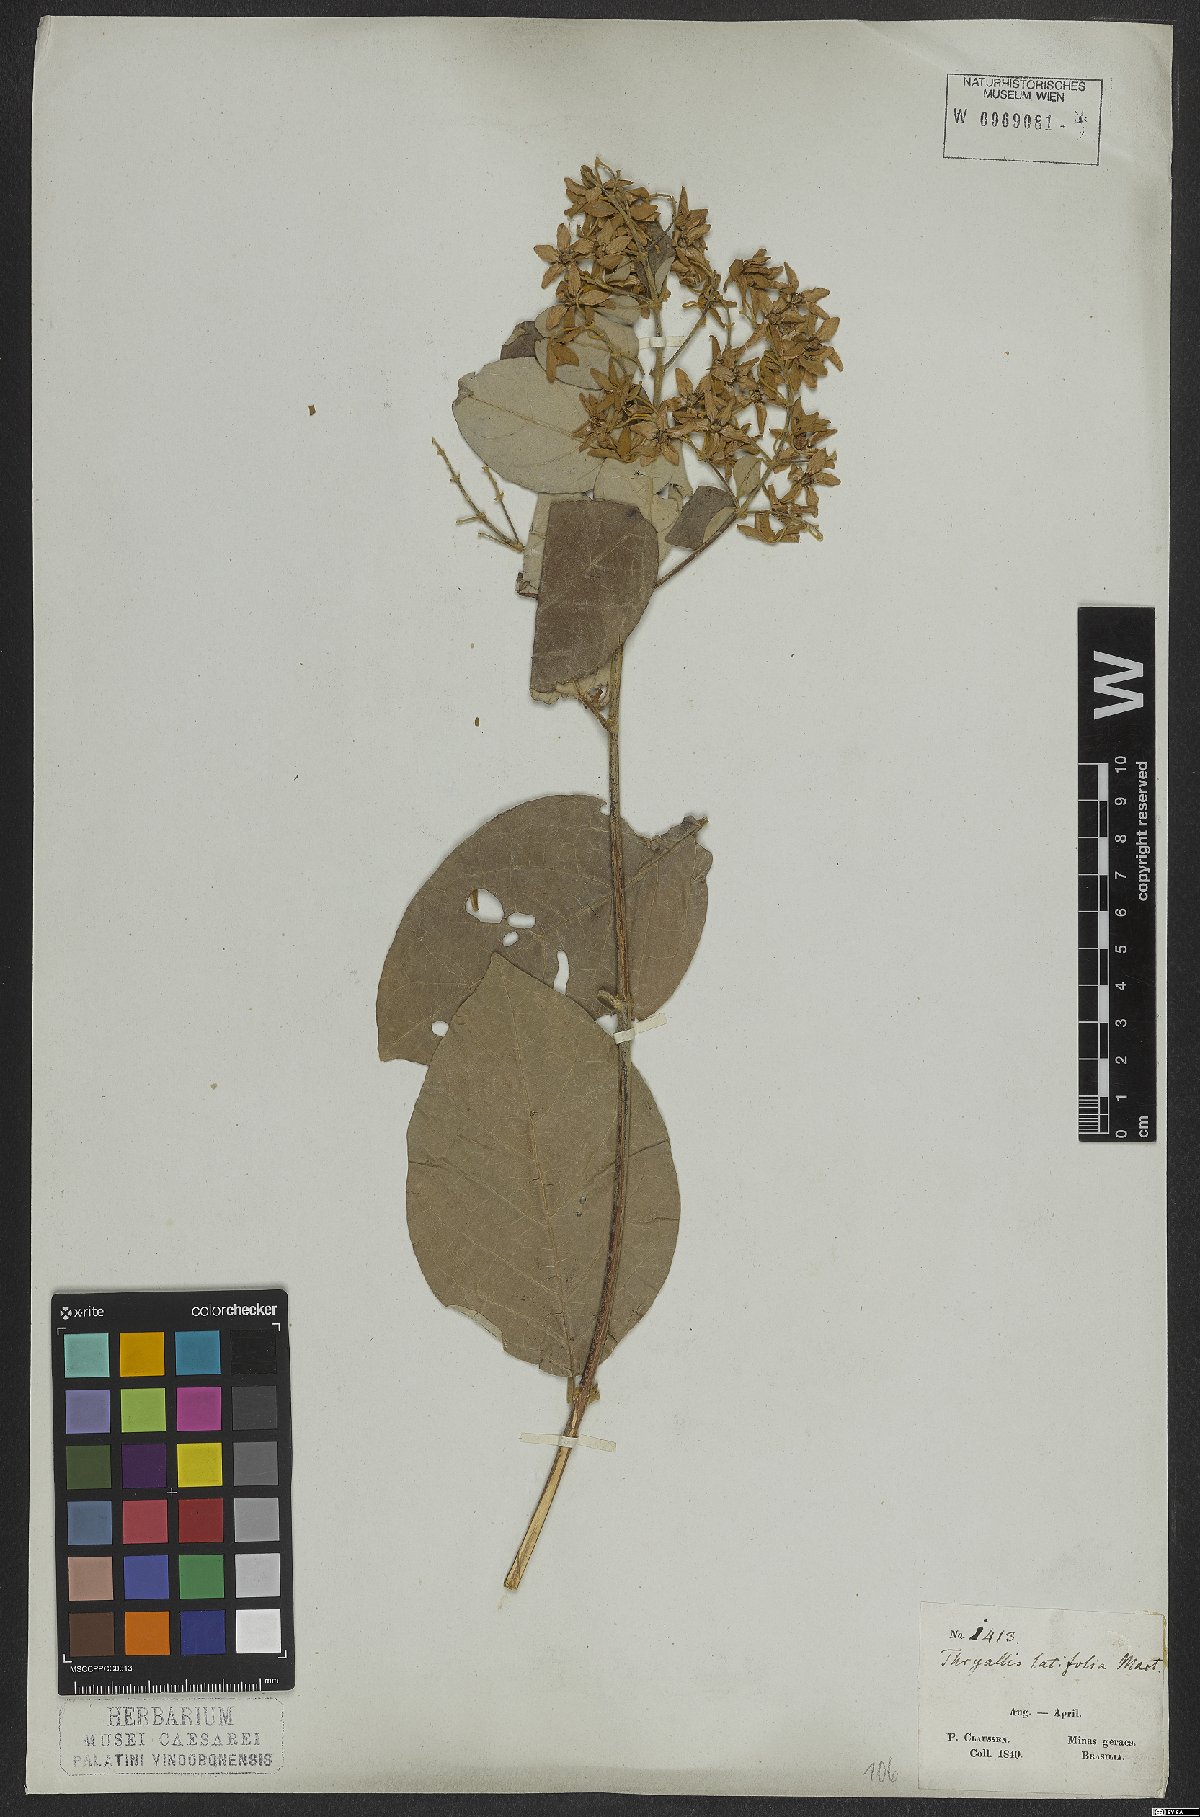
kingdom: Plantae
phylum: Tracheophyta
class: Magnoliopsida
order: Malpighiales
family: Malpighiaceae
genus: Thryallis
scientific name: Thryallis latifolia
